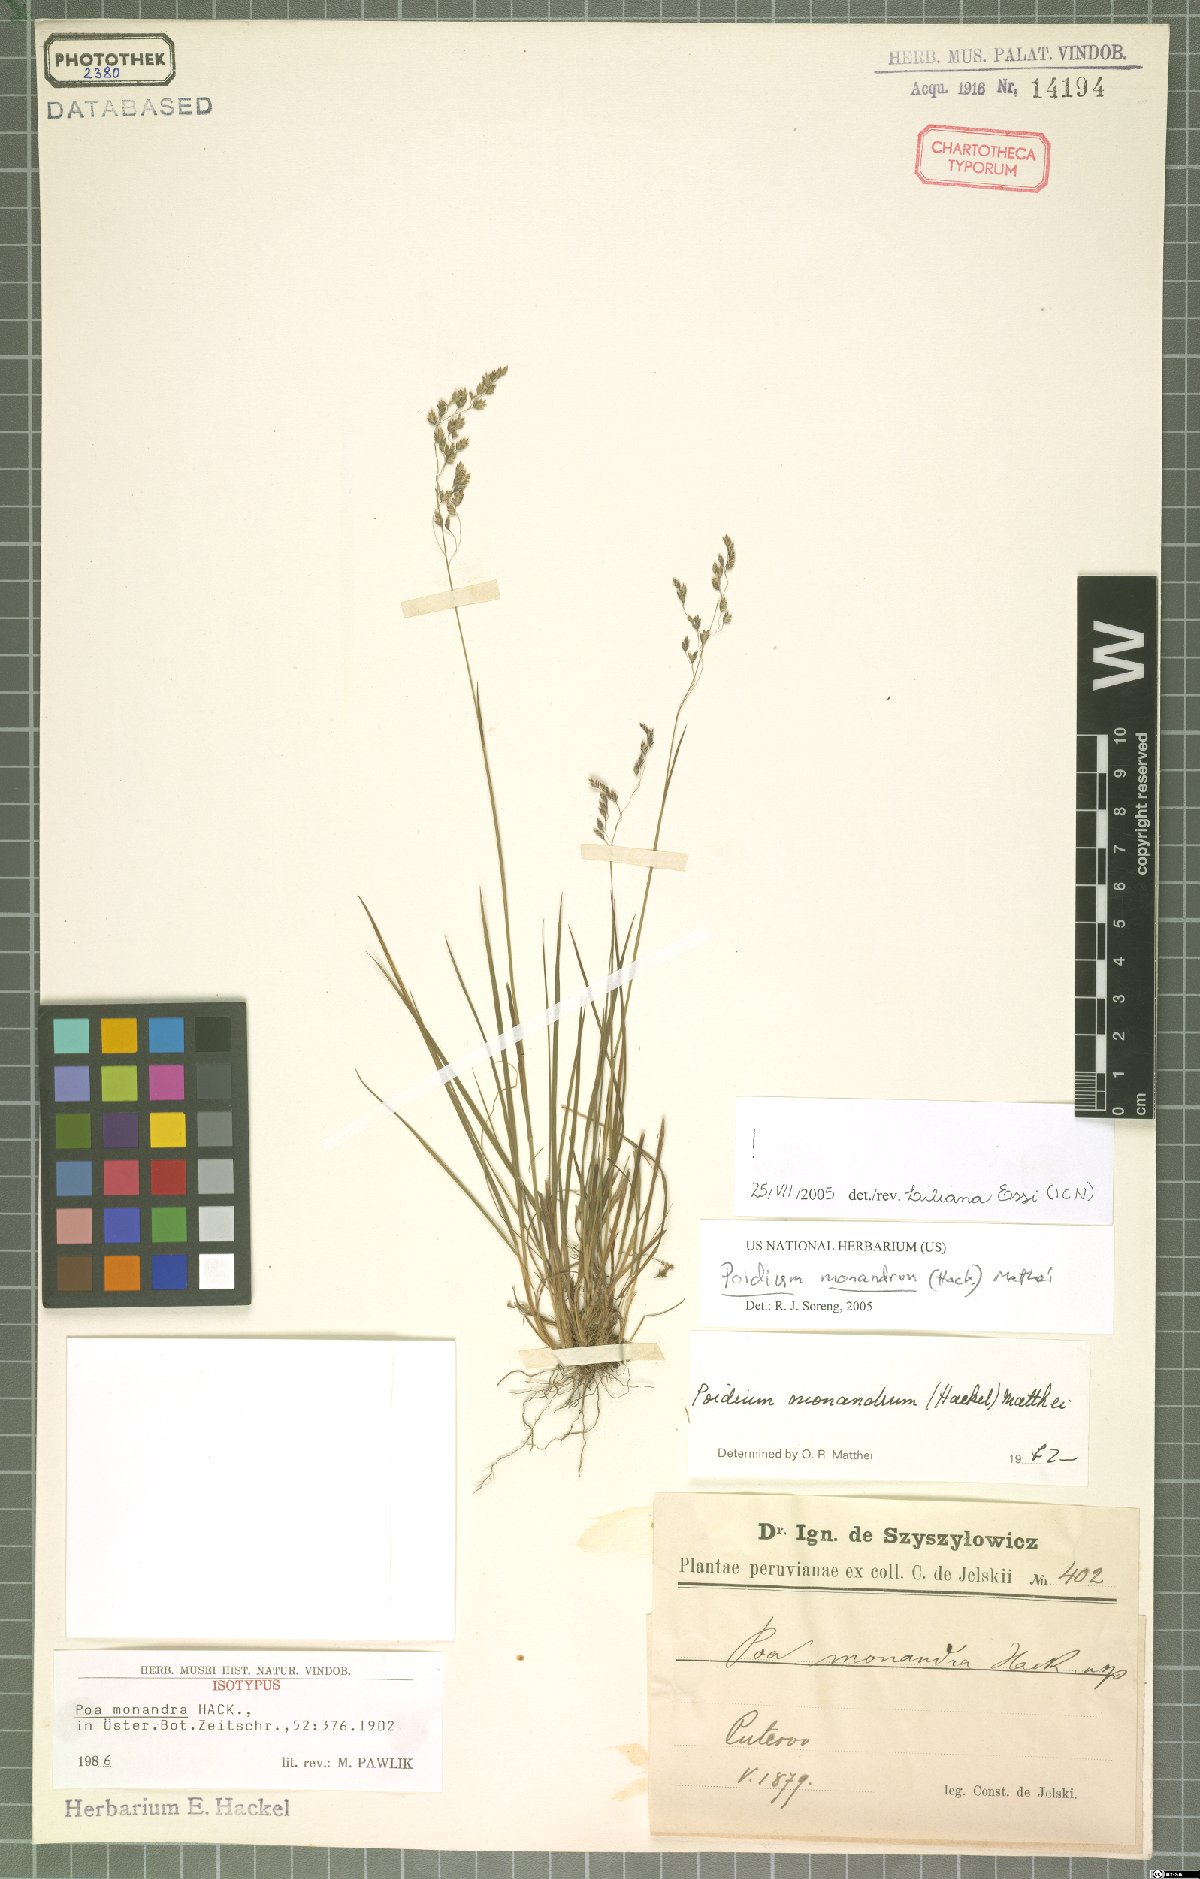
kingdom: Plantae
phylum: Tracheophyta
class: Liliopsida
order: Poales
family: Poaceae
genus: Poidium
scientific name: Poidium monandrum
